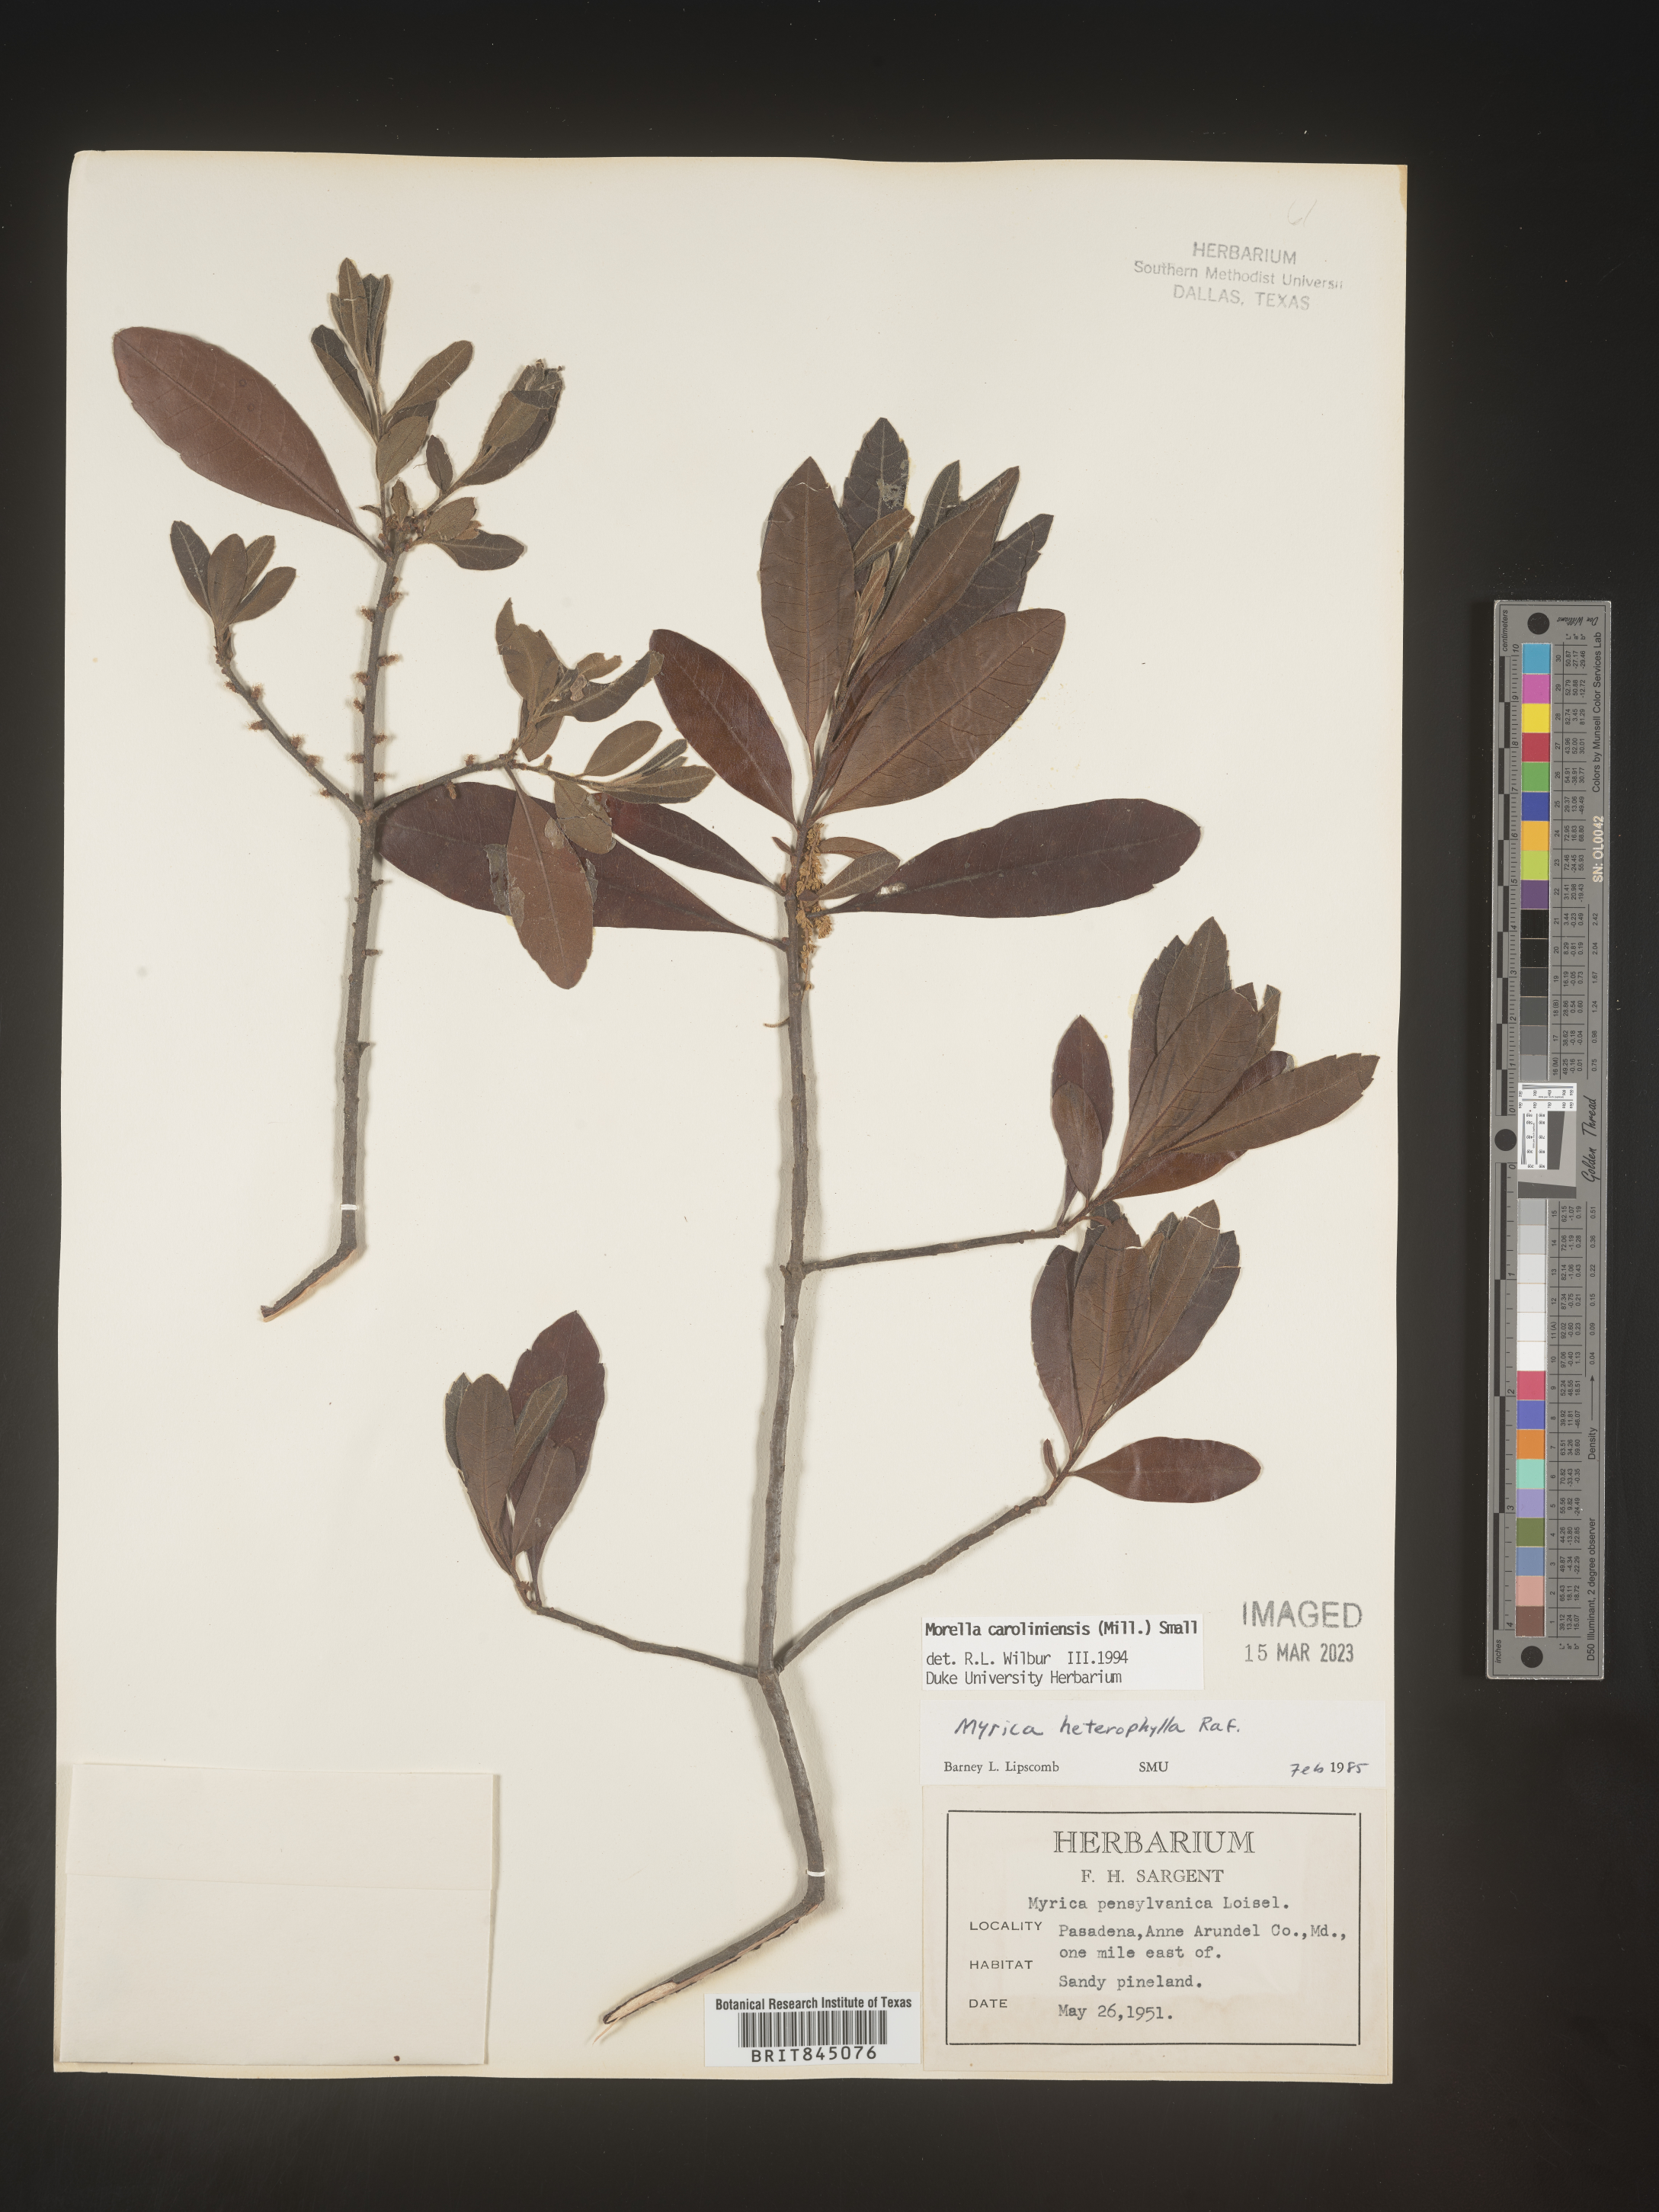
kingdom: Plantae
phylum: Tracheophyta
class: Magnoliopsida
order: Fagales
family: Myricaceae
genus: Morella
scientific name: Morella caroliniensis
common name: Evergreen bayberry
